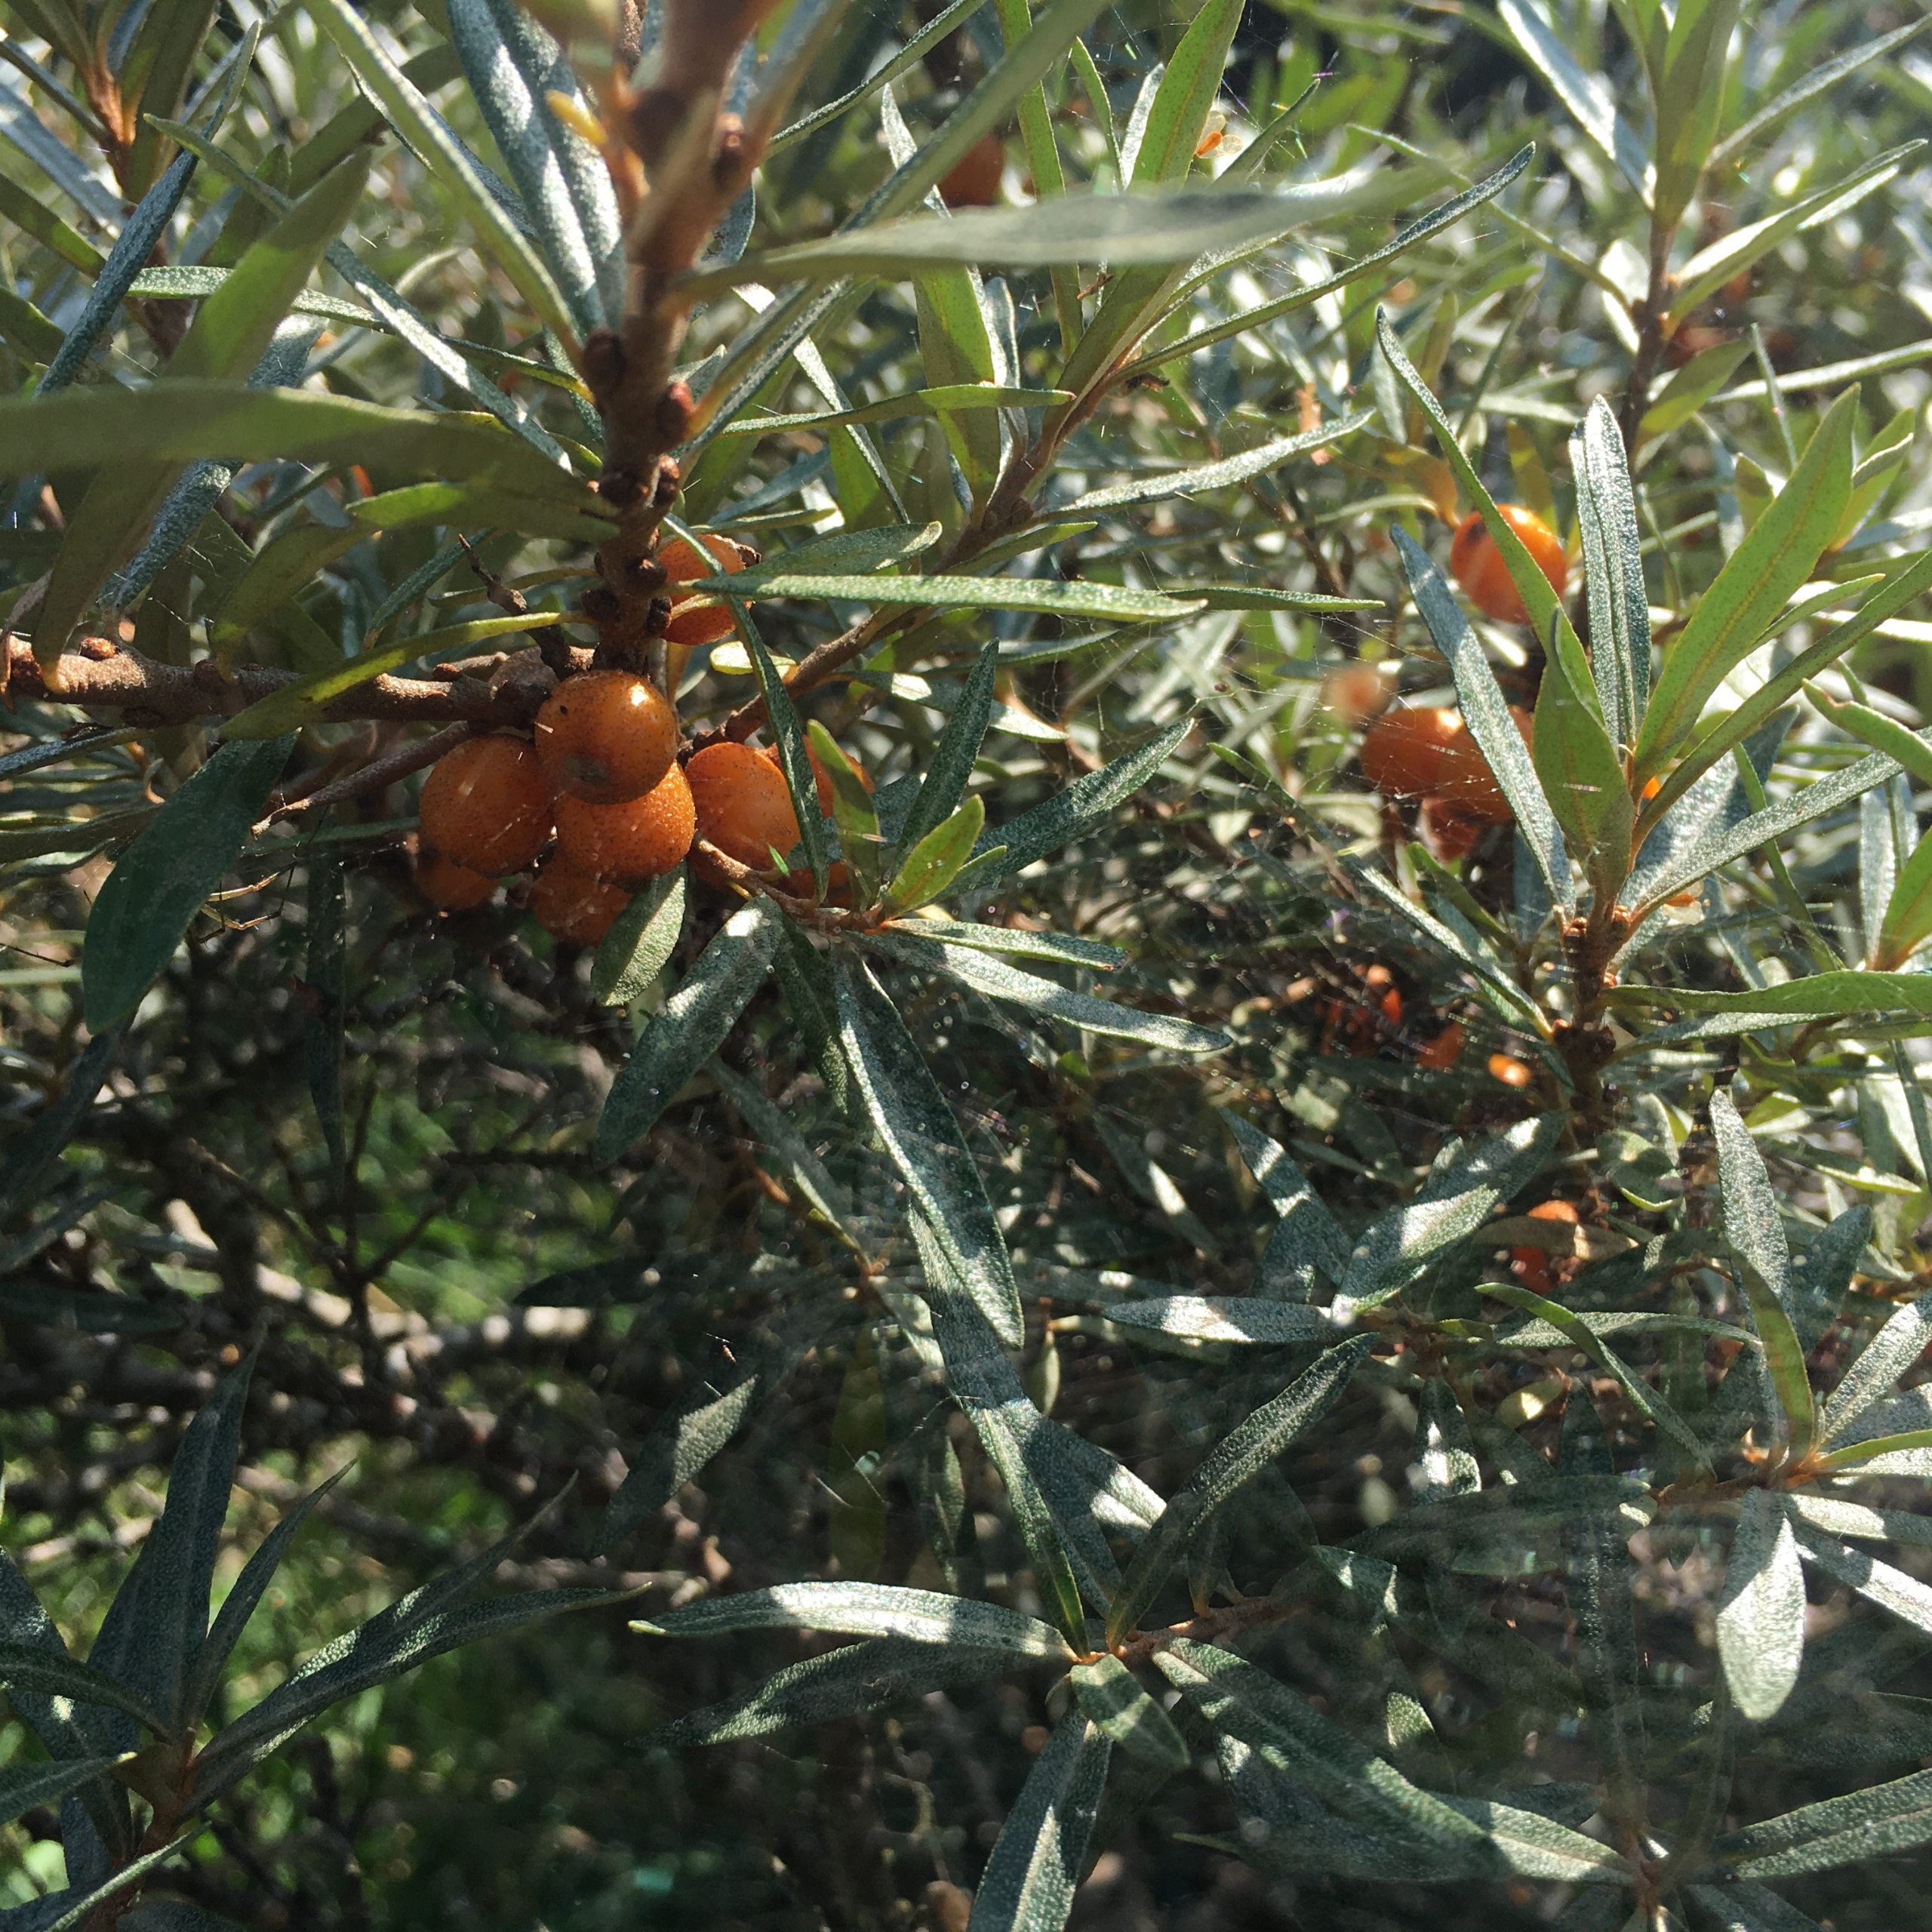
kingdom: Plantae
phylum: Tracheophyta
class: Magnoliopsida
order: Rosales
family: Elaeagnaceae
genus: Hippophae
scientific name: Hippophae rhamnoides
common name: Havtorn
